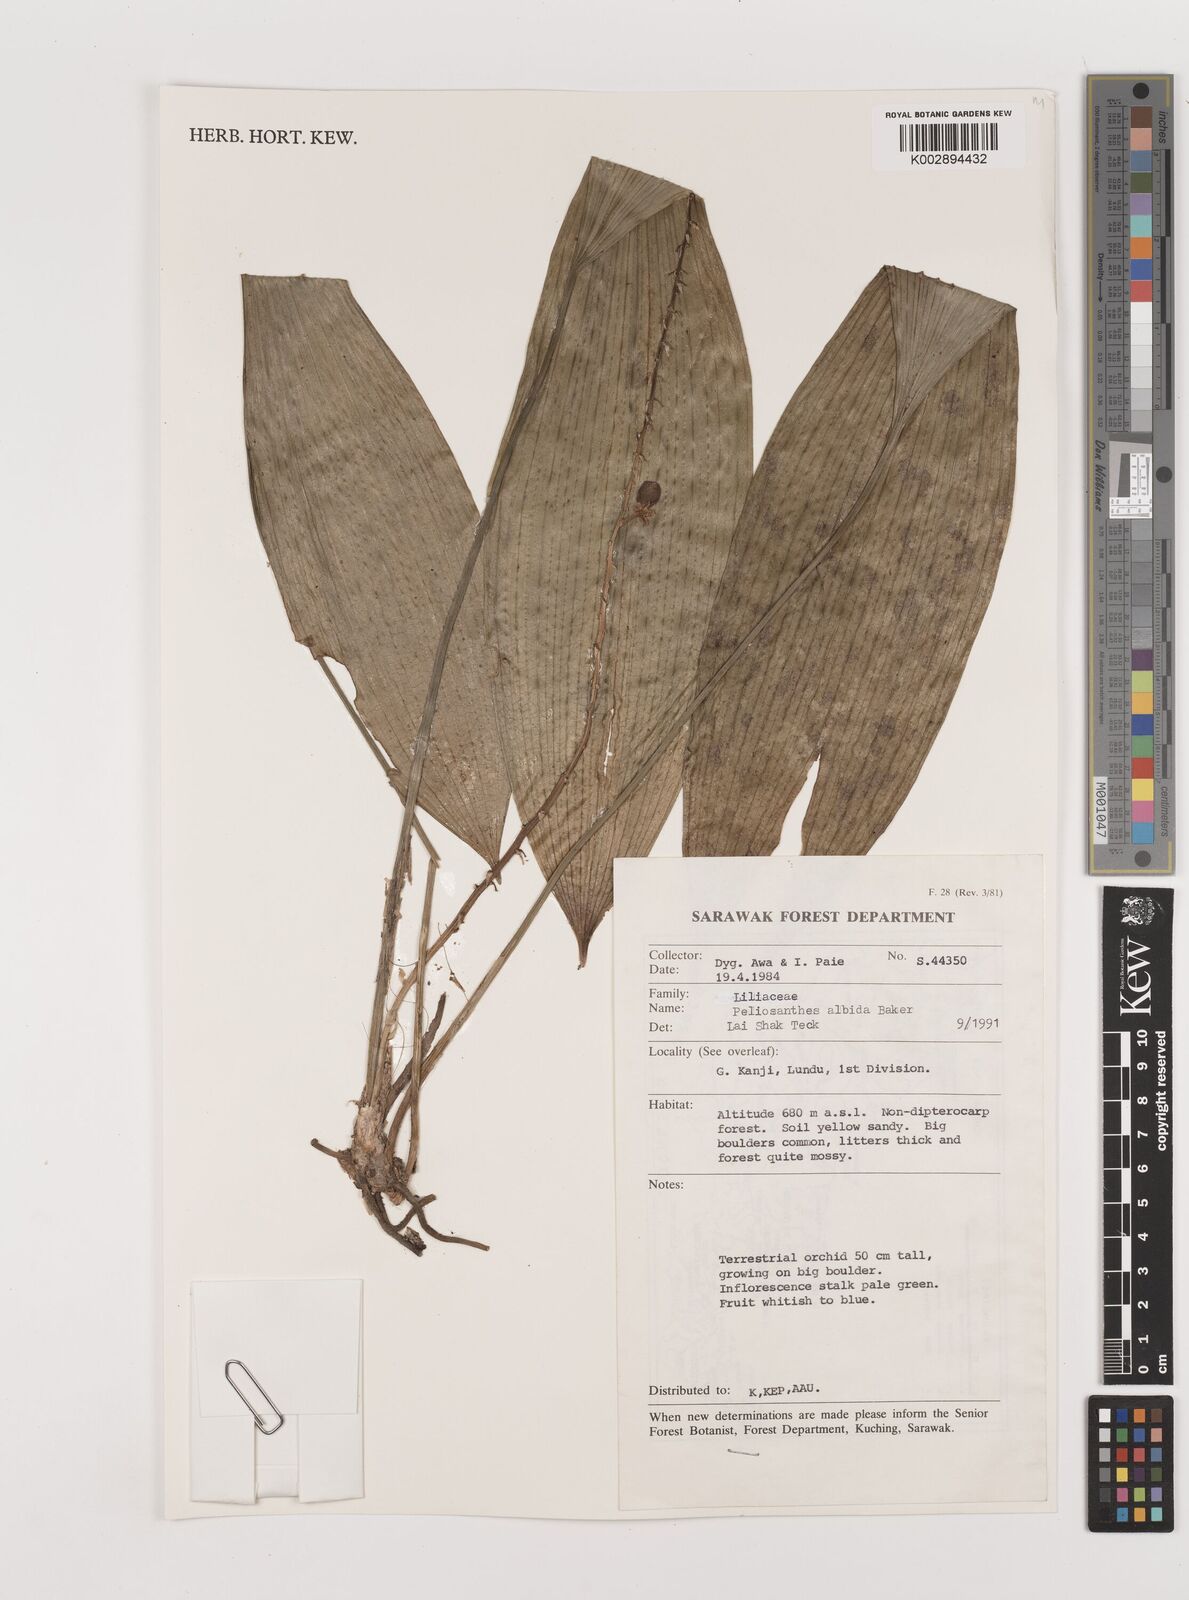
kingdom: Plantae
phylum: Tracheophyta
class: Liliopsida
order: Asparagales
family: Asparagaceae
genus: Peliosanthes
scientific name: Peliosanthes teta
